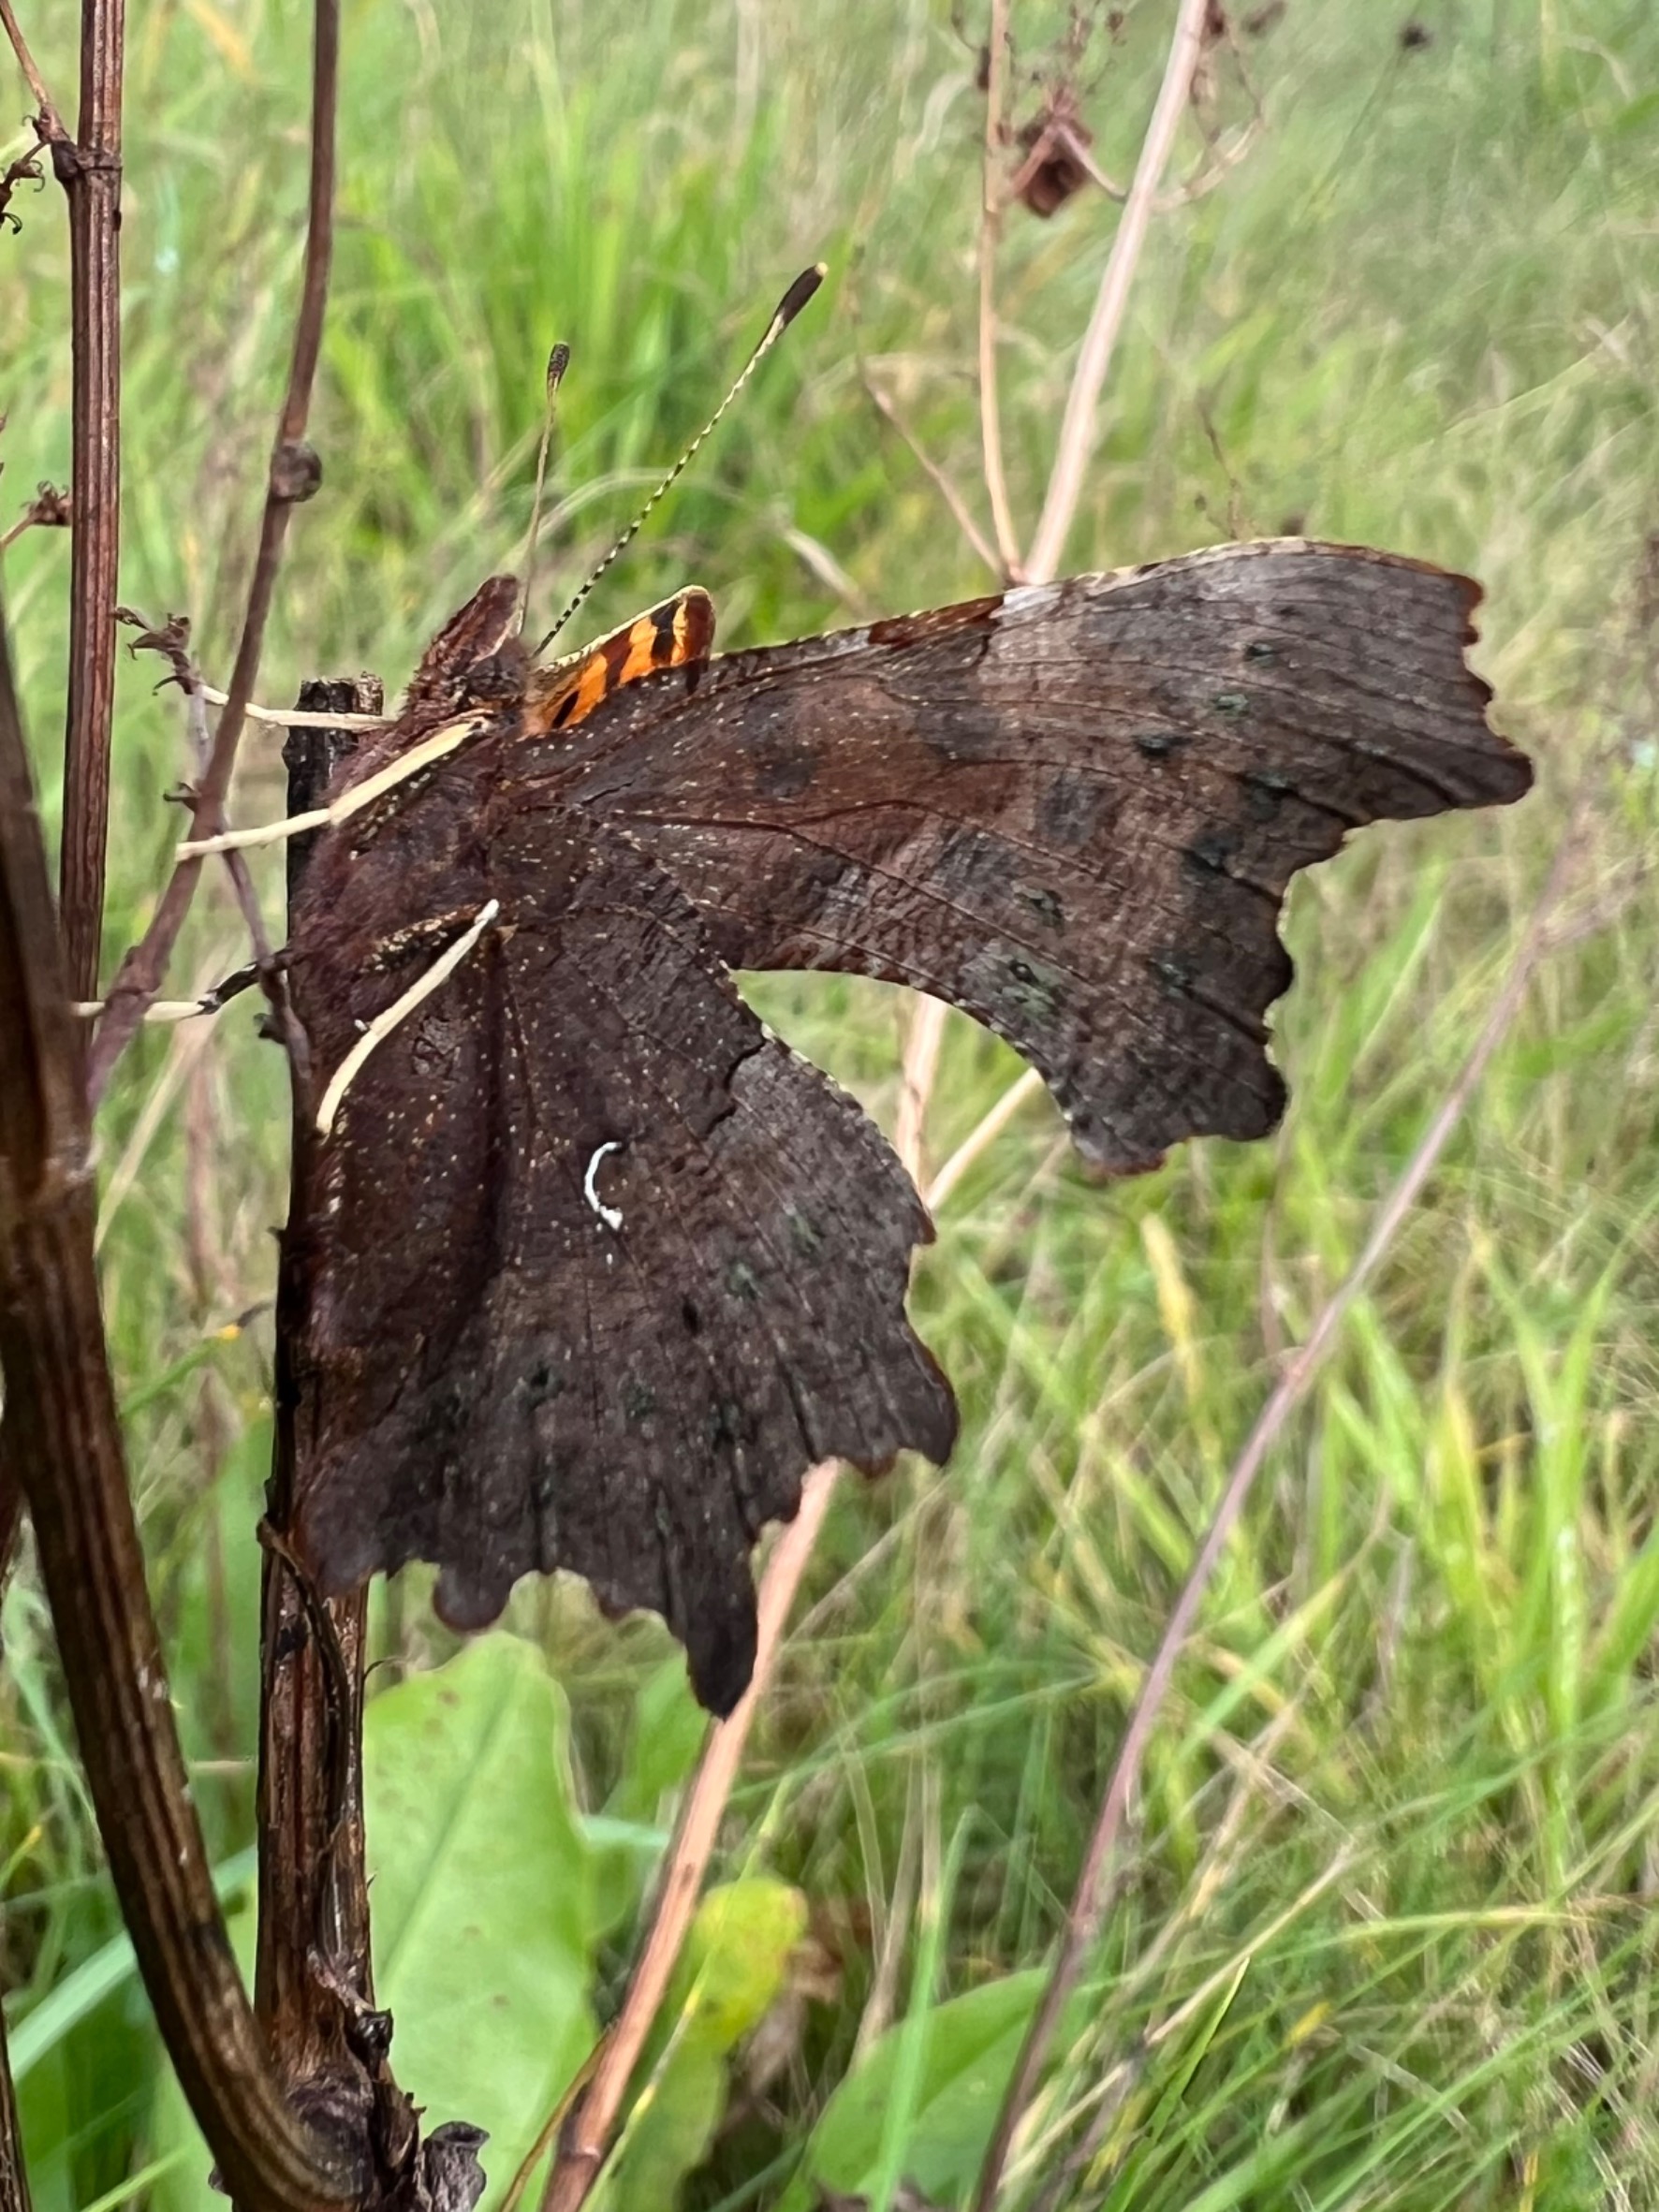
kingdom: Animalia
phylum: Arthropoda
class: Insecta
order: Lepidoptera
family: Nymphalidae
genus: Polygonia
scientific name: Polygonia c-album
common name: Det hvide C
